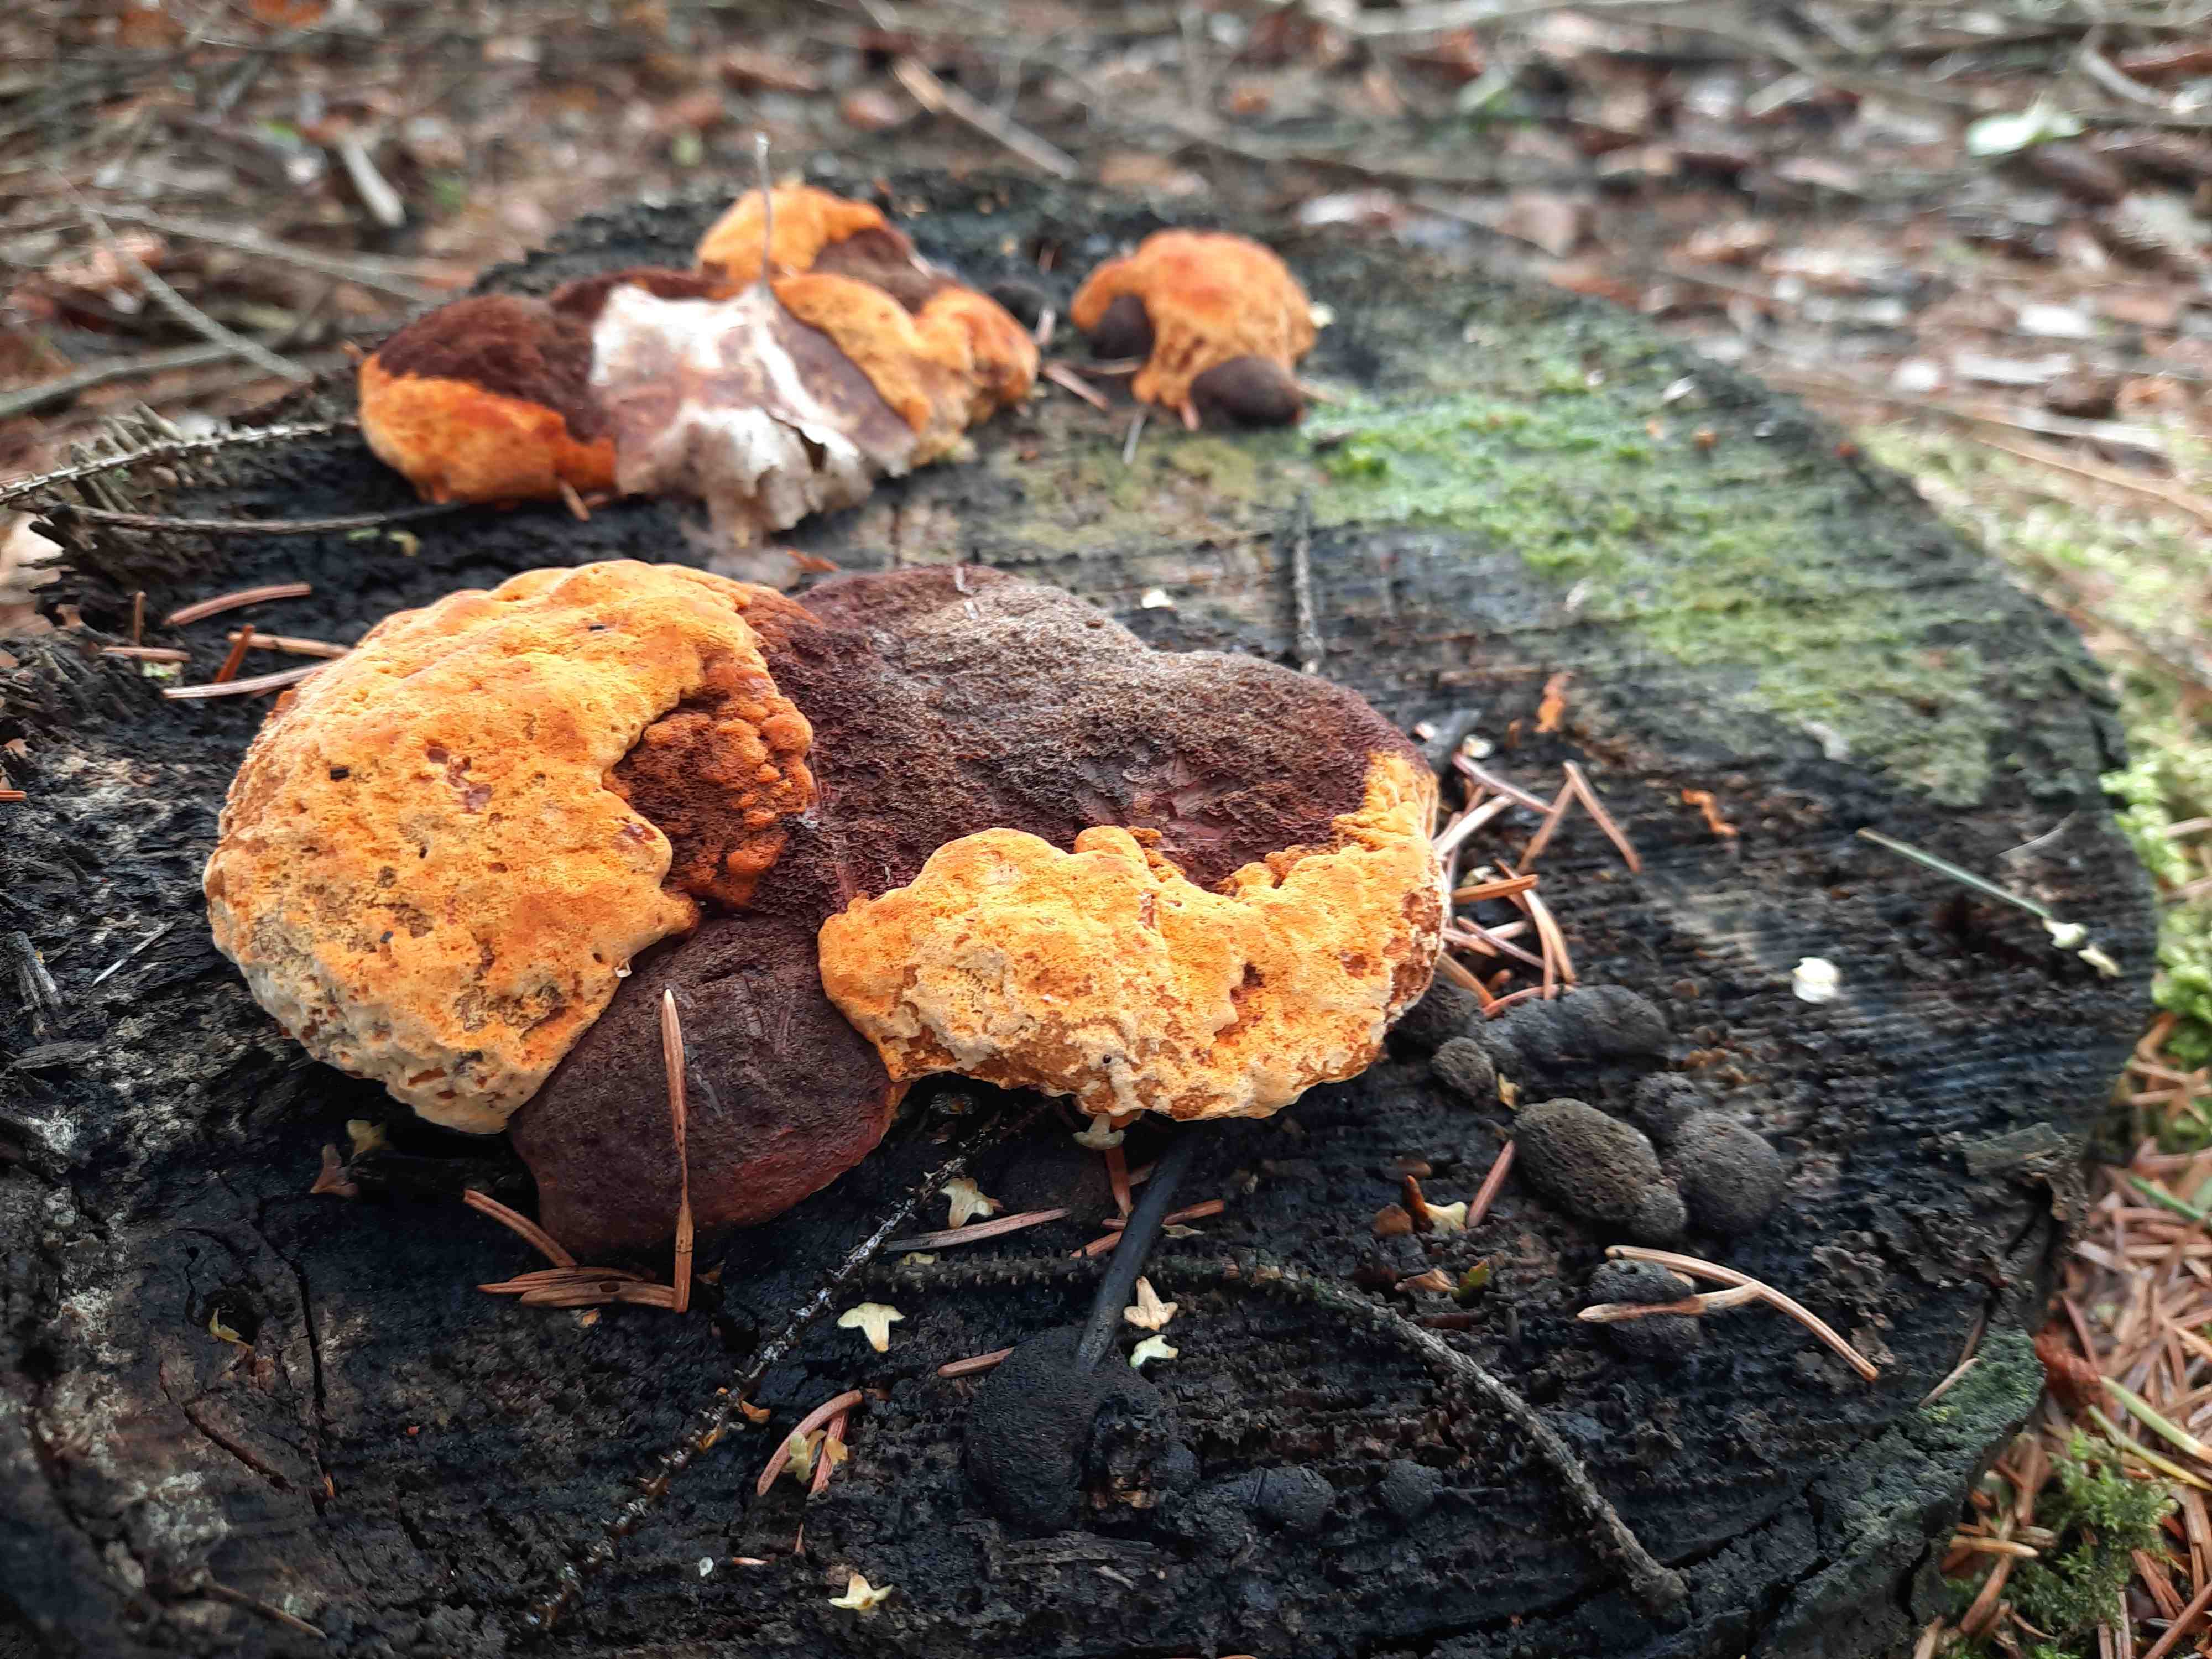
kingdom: Fungi
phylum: Basidiomycota
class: Agaricomycetes
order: Gloeophyllales
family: Gloeophyllaceae
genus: Gloeophyllum
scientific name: Gloeophyllum odoratum
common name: duftende korkhat
